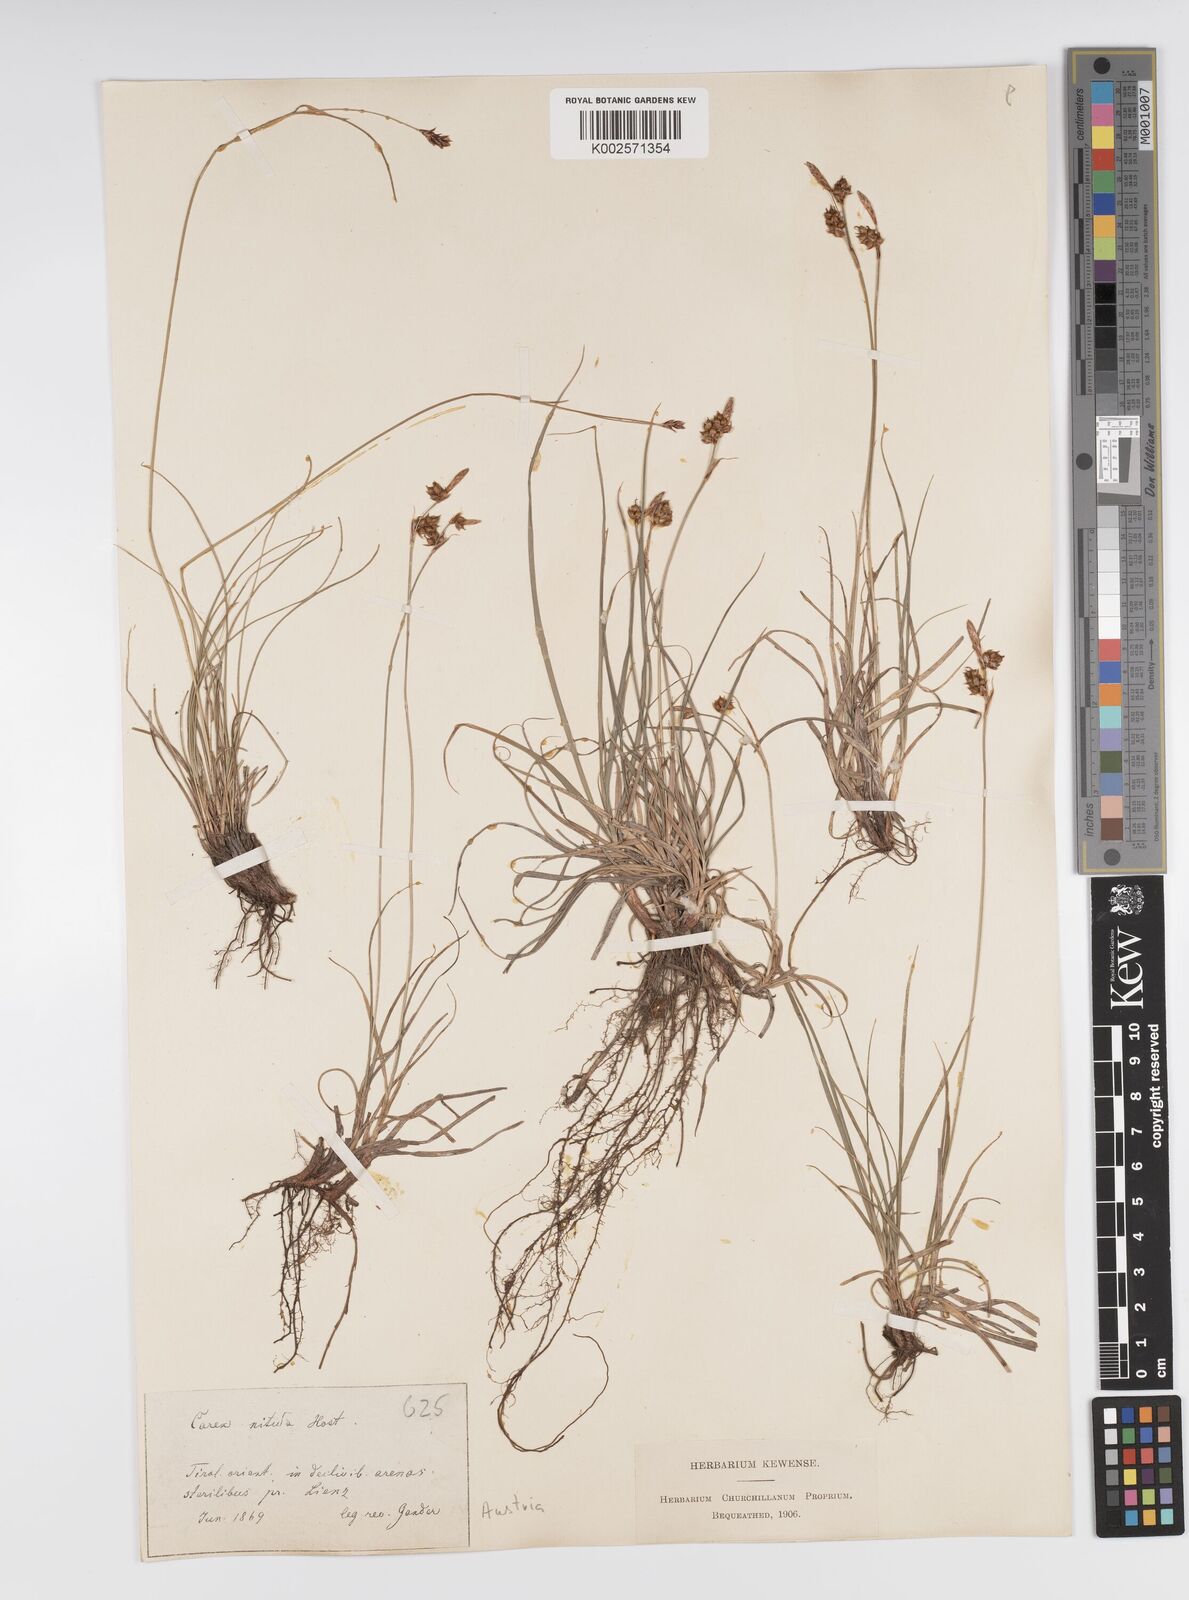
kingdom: Plantae
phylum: Tracheophyta
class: Liliopsida
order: Poales
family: Cyperaceae
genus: Carex
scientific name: Carex liparocarpos
